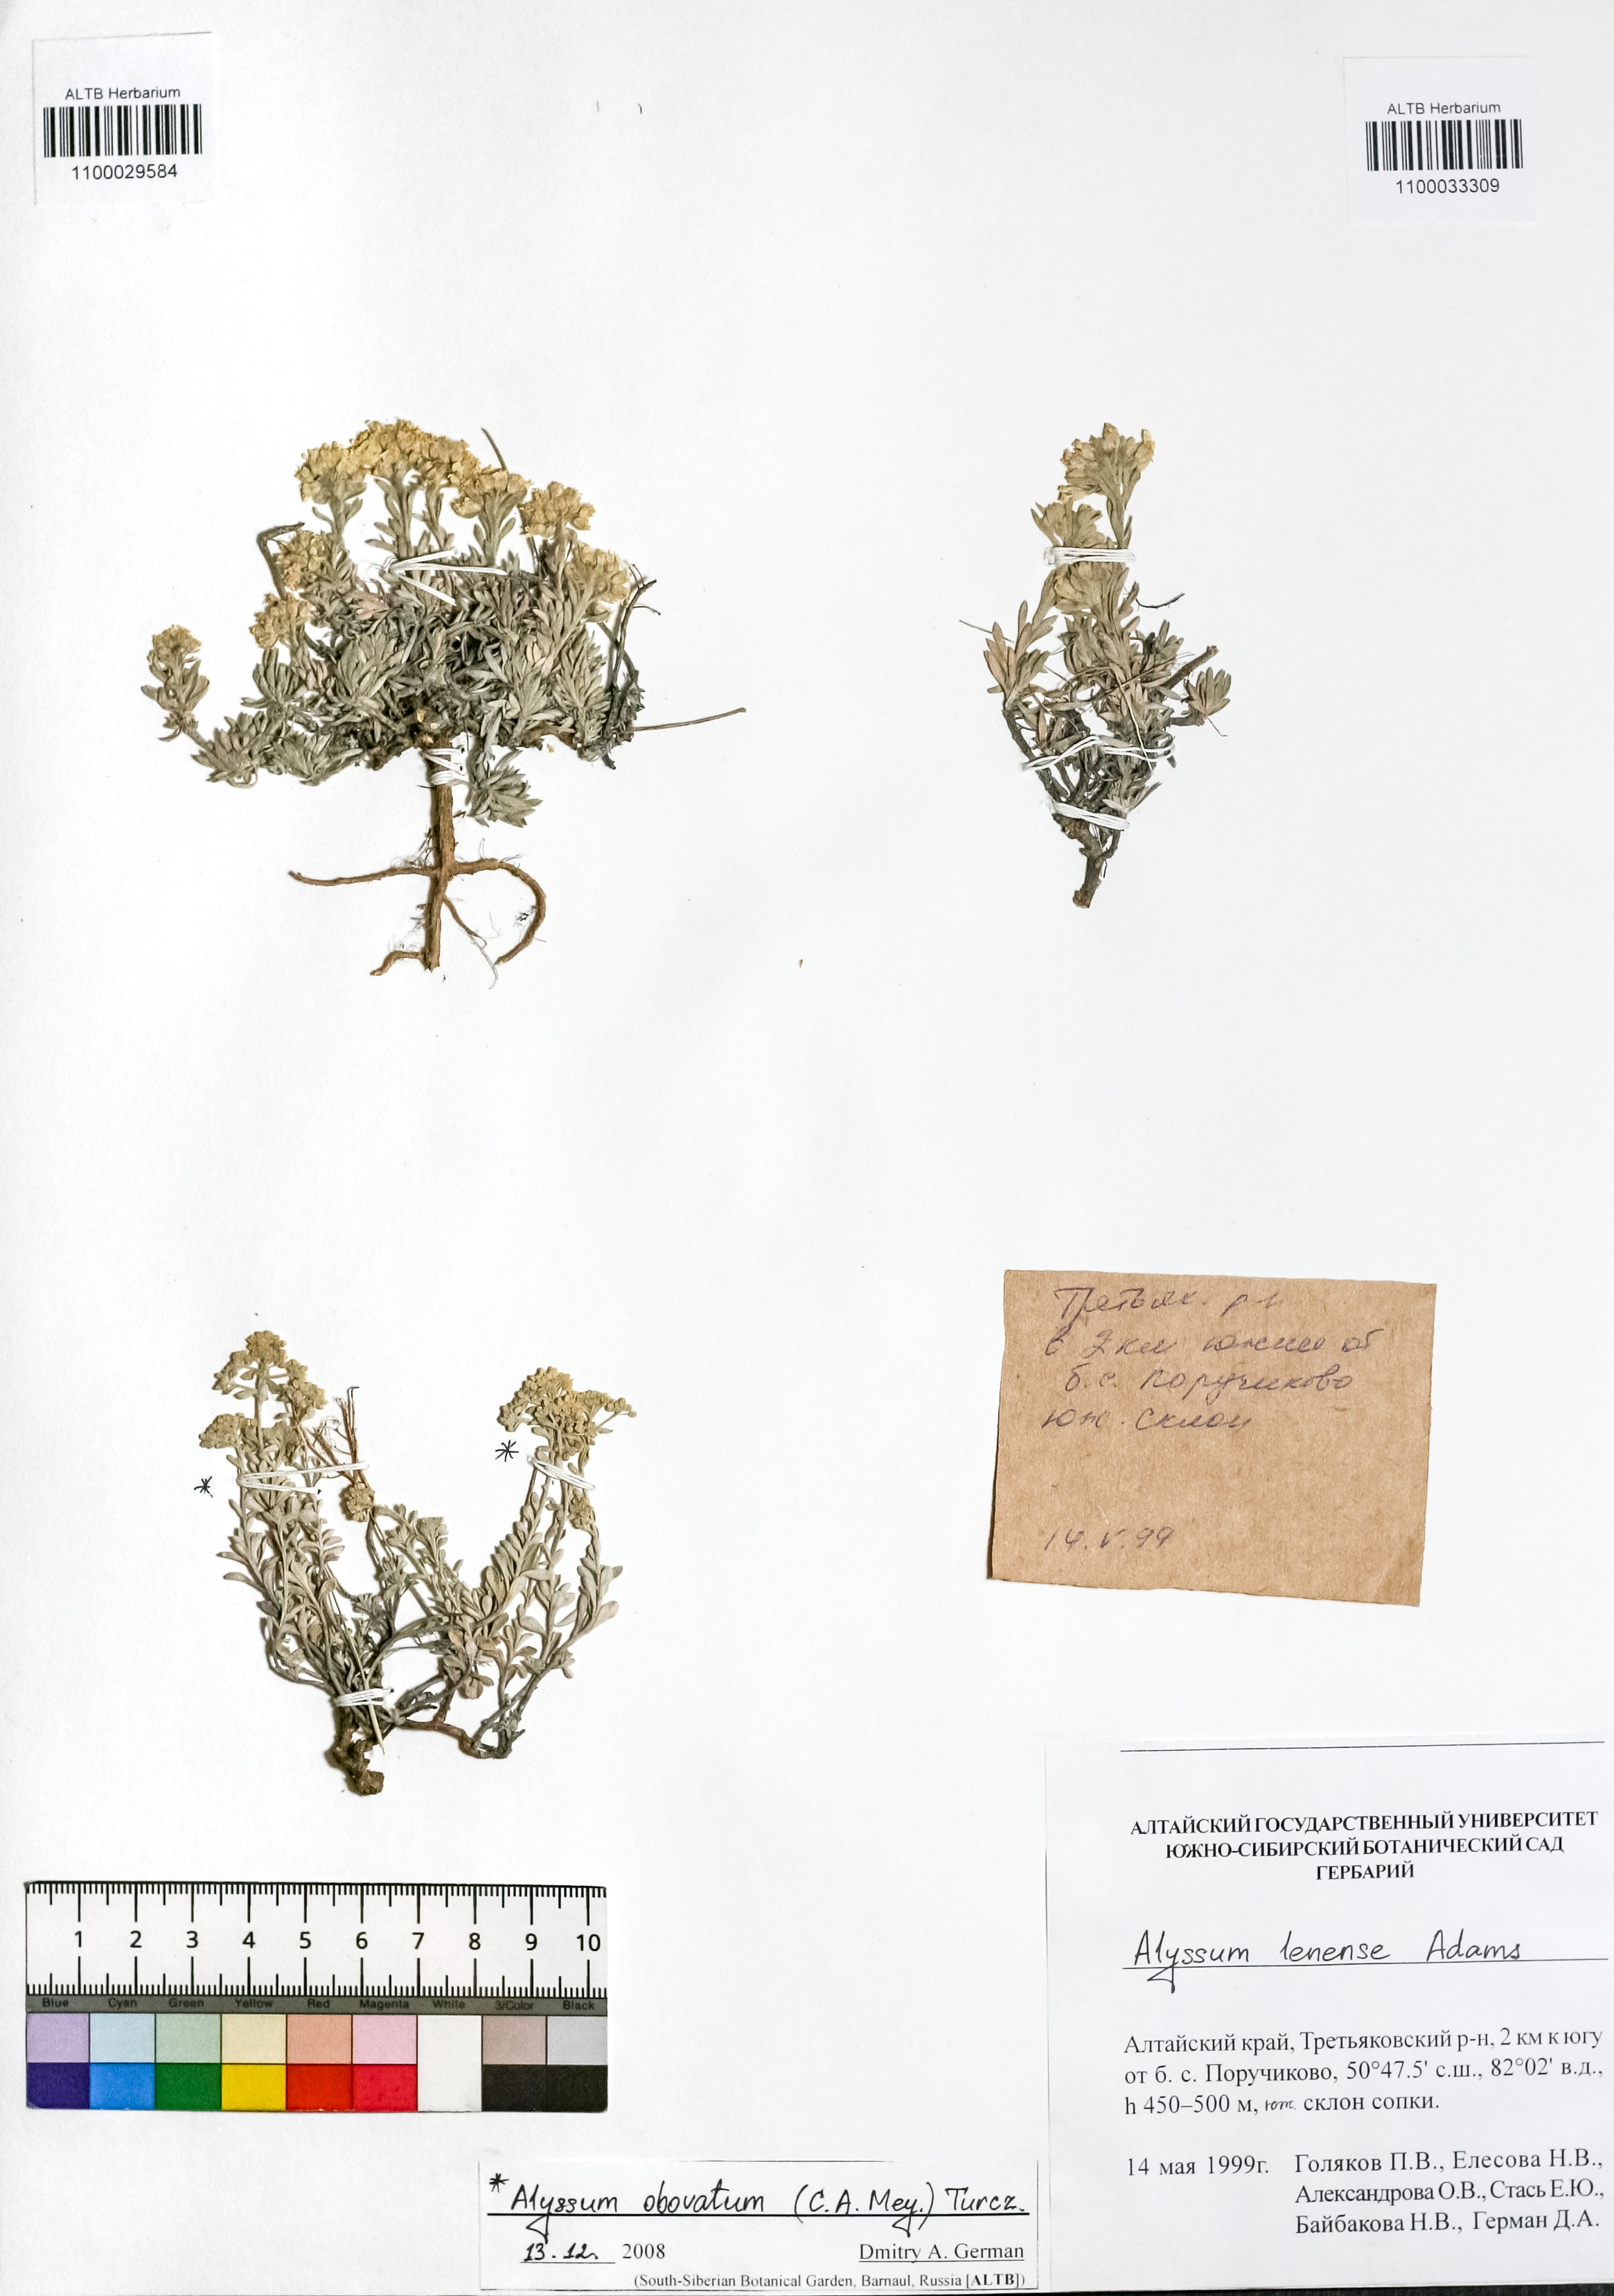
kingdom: Plantae
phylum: Tracheophyta
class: Magnoliopsida
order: Brassicales
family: Brassicaceae
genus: Alyssum
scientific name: Alyssum lenense
